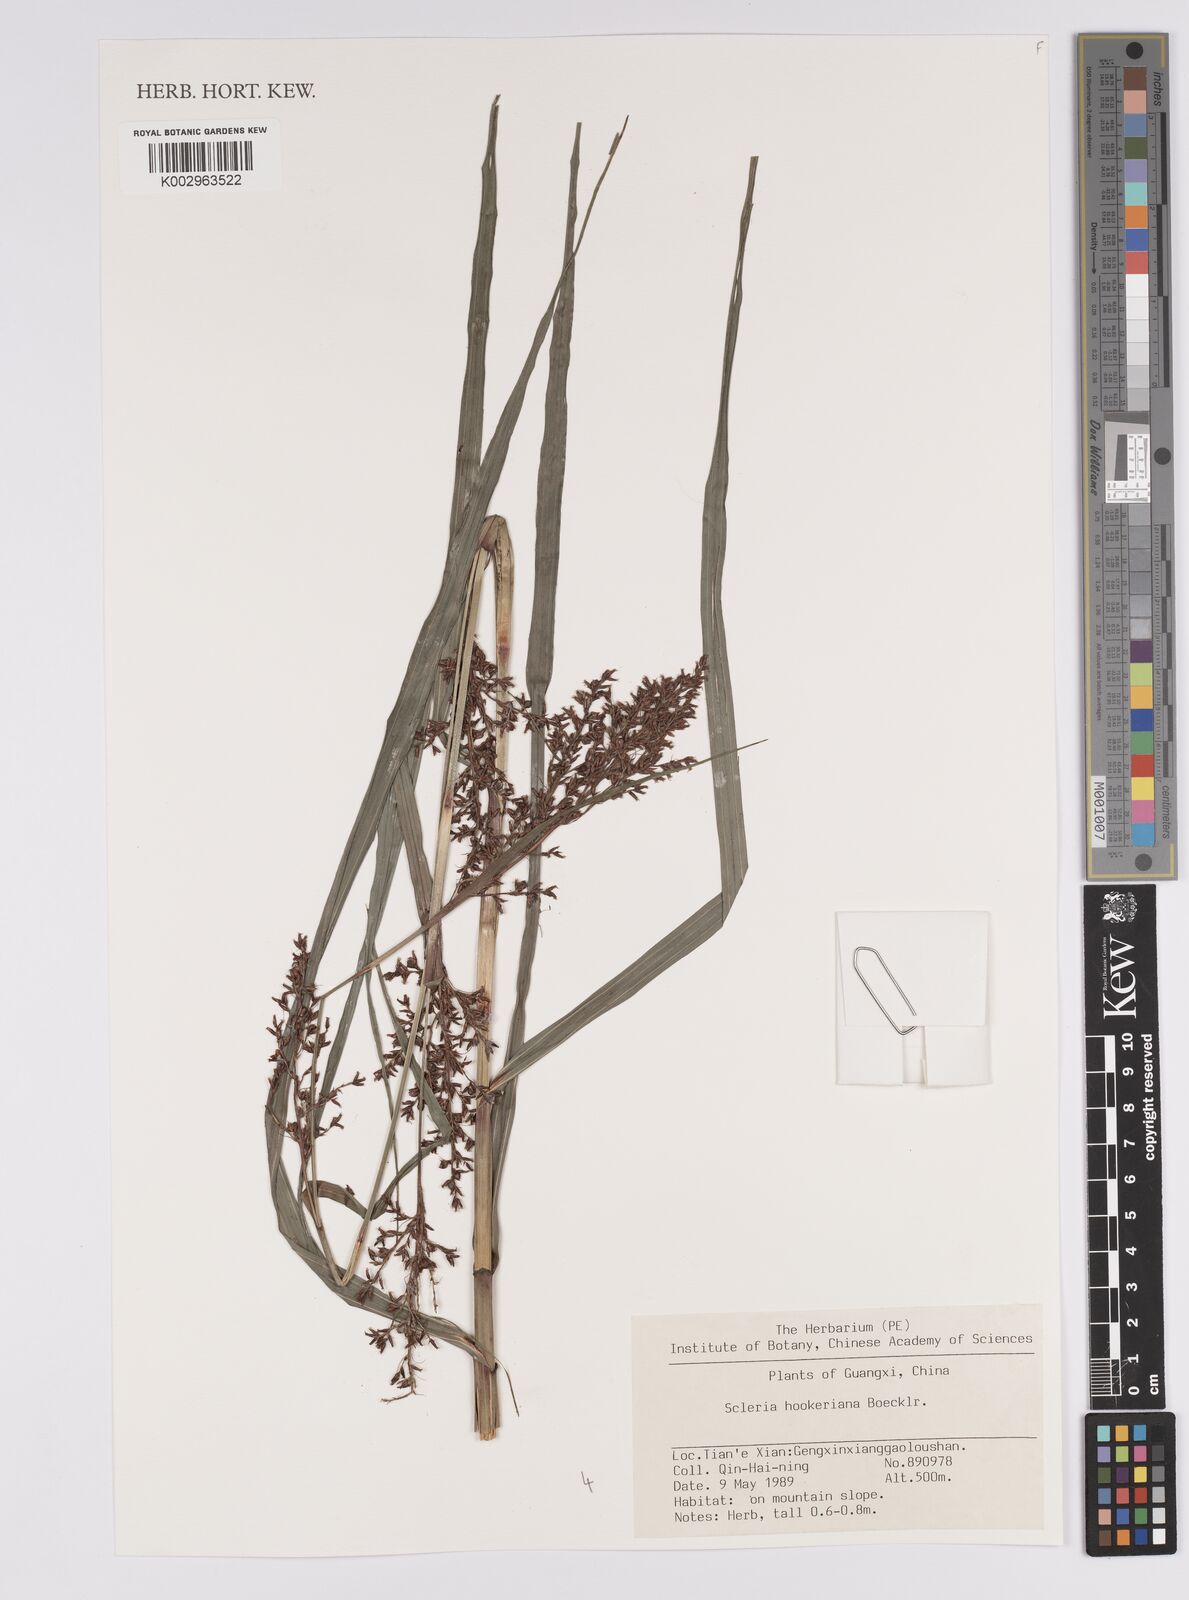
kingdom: Plantae
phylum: Tracheophyta
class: Liliopsida
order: Poales
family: Cyperaceae
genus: Scleria
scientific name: Scleria terrestris
